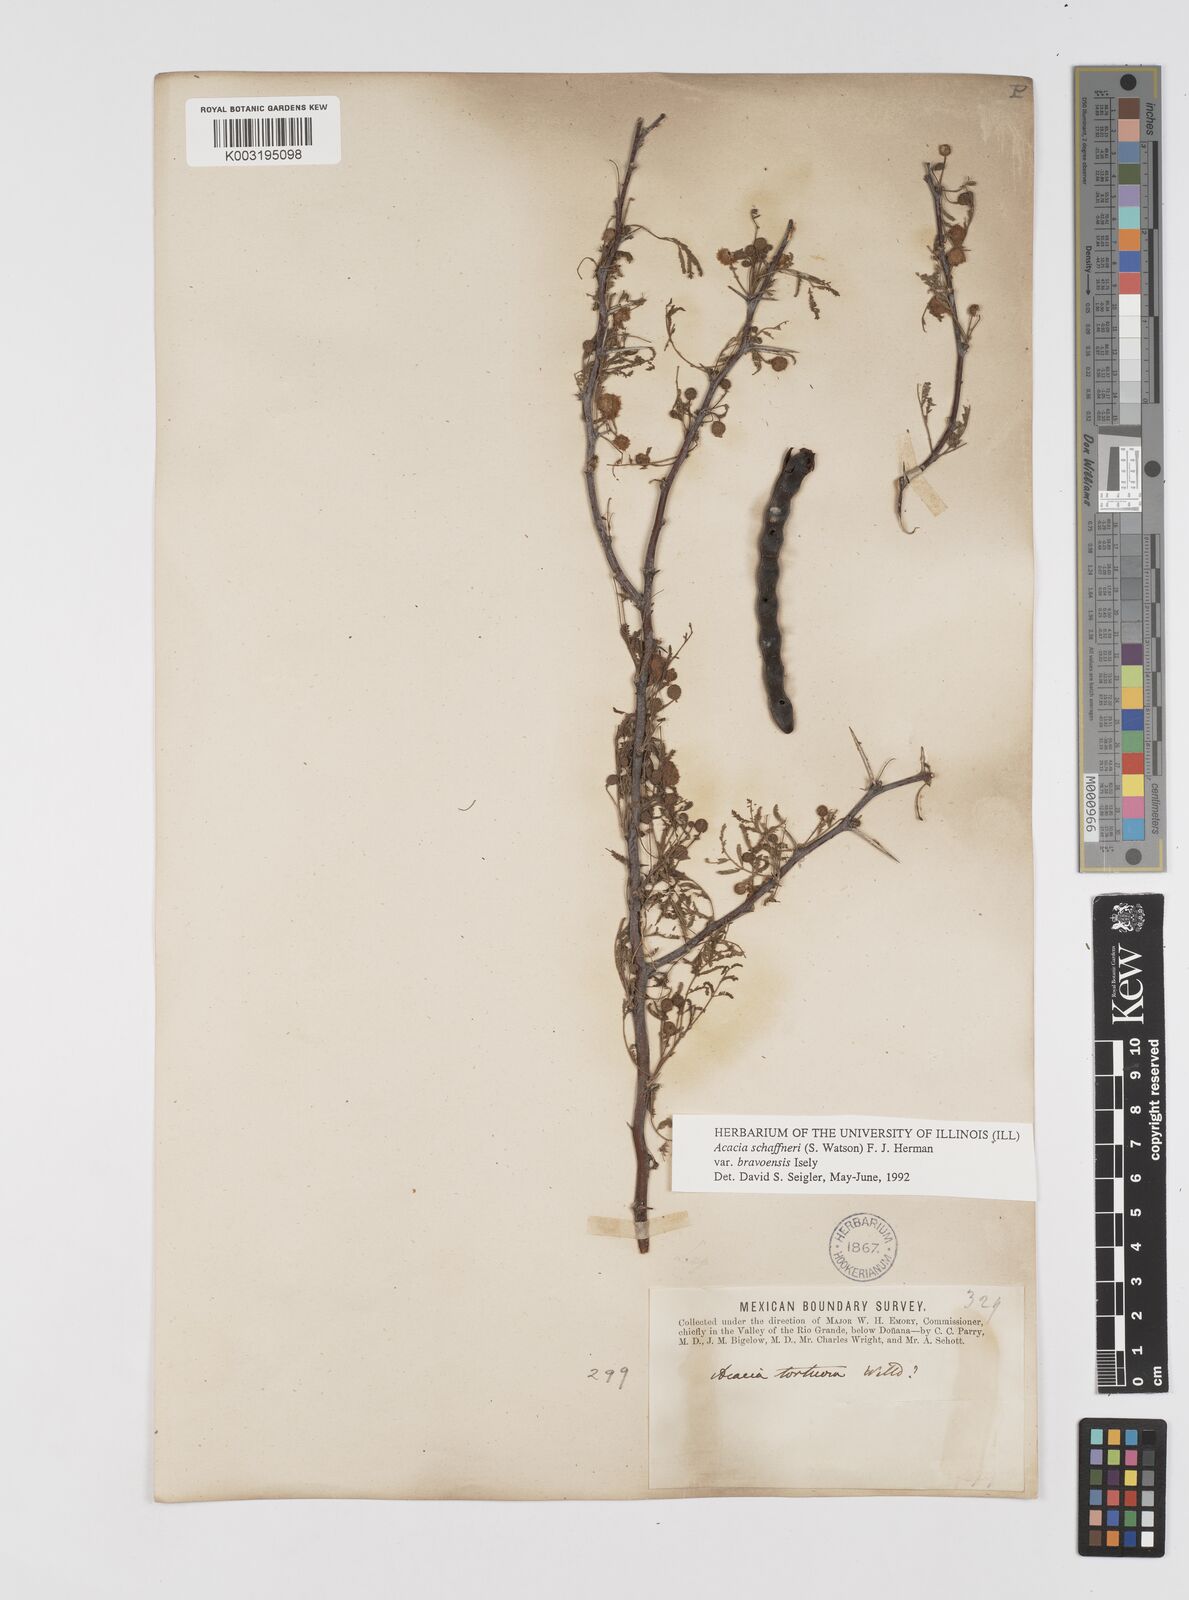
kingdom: Plantae
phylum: Tracheophyta
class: Magnoliopsida
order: Fabales
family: Fabaceae
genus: Vachellia
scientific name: Vachellia schaffneri
